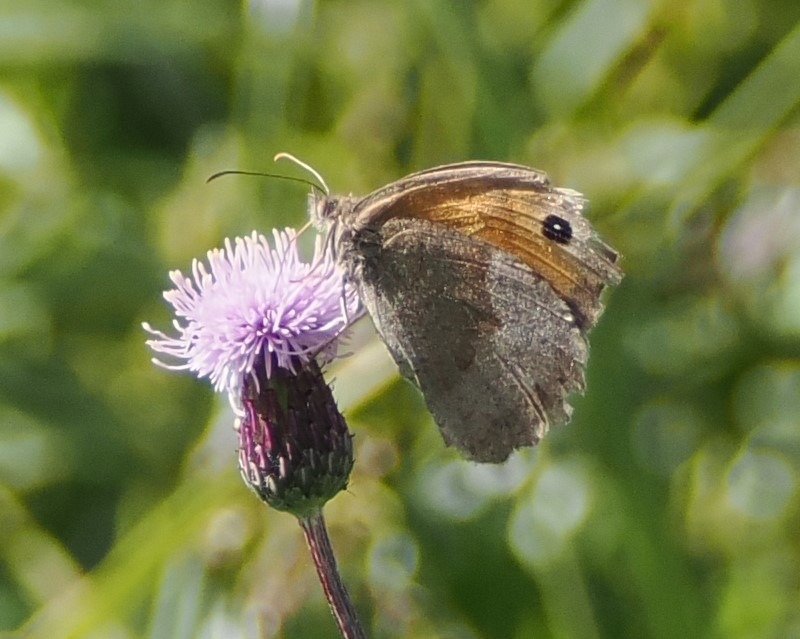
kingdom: Animalia
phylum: Arthropoda
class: Insecta
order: Lepidoptera
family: Nymphalidae
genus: Maniola
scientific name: Maniola jurtina
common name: Græsrandøje
